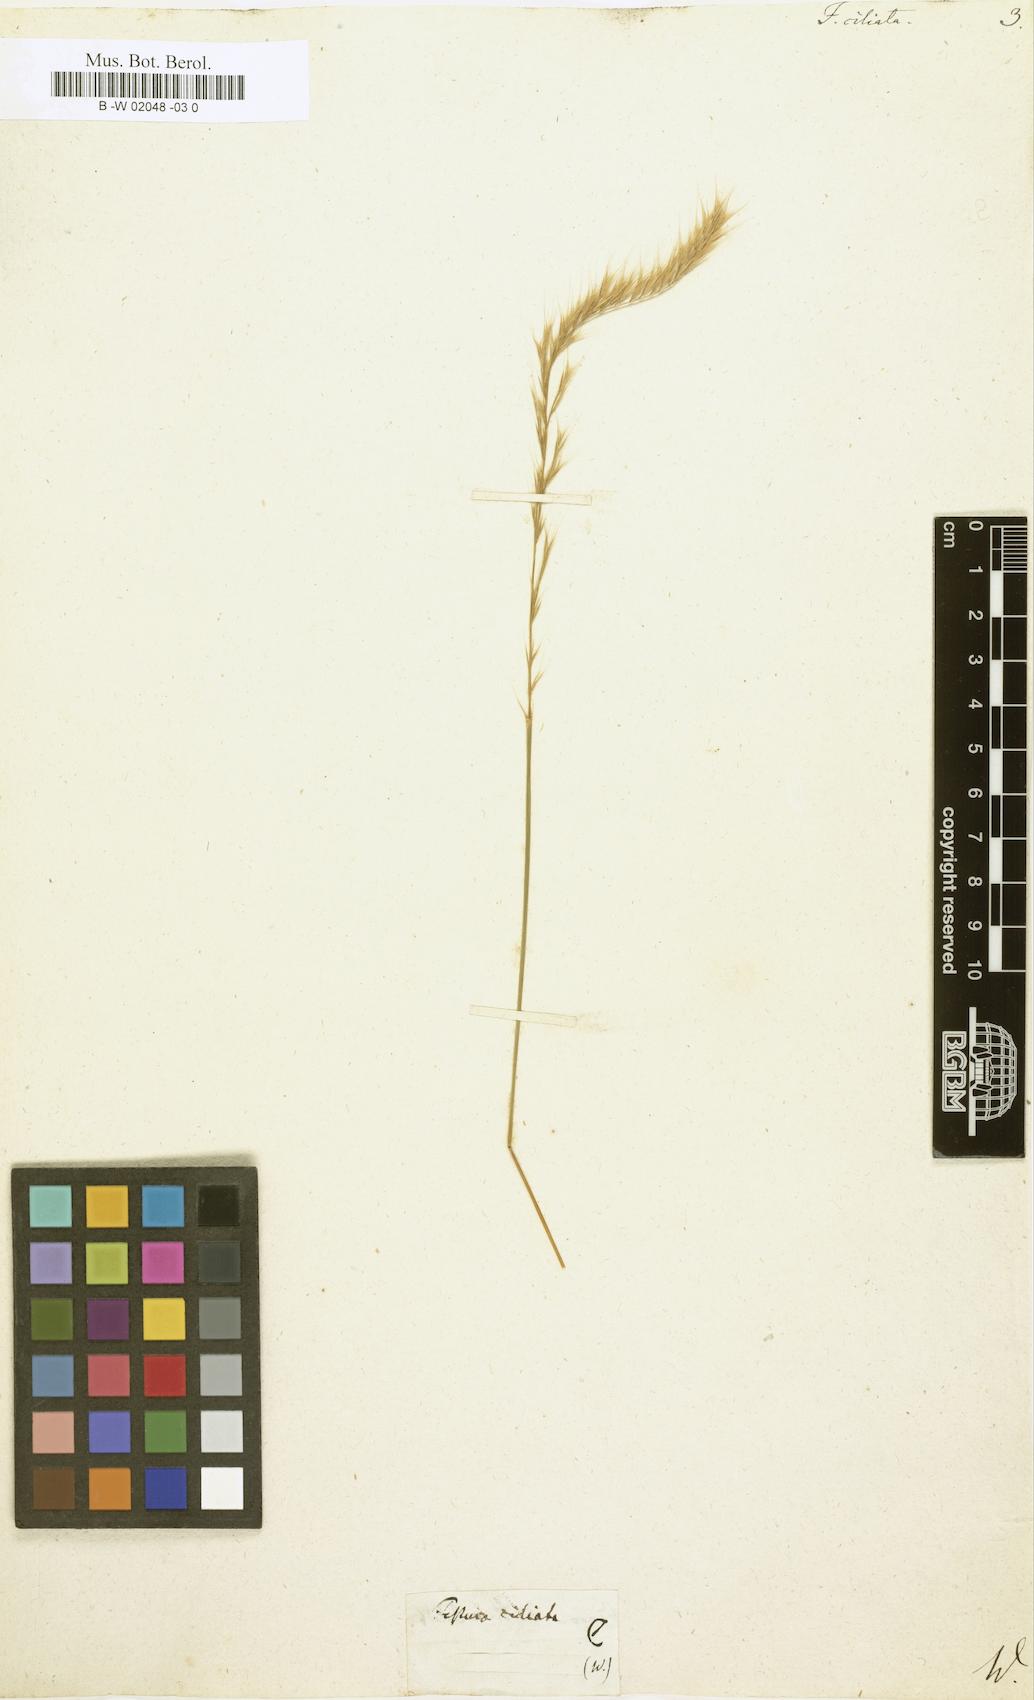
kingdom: Plantae
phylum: Tracheophyta
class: Liliopsida
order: Poales
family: Poaceae
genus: Brachypodium
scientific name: Brachypodium distachyon
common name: Stiff brome
